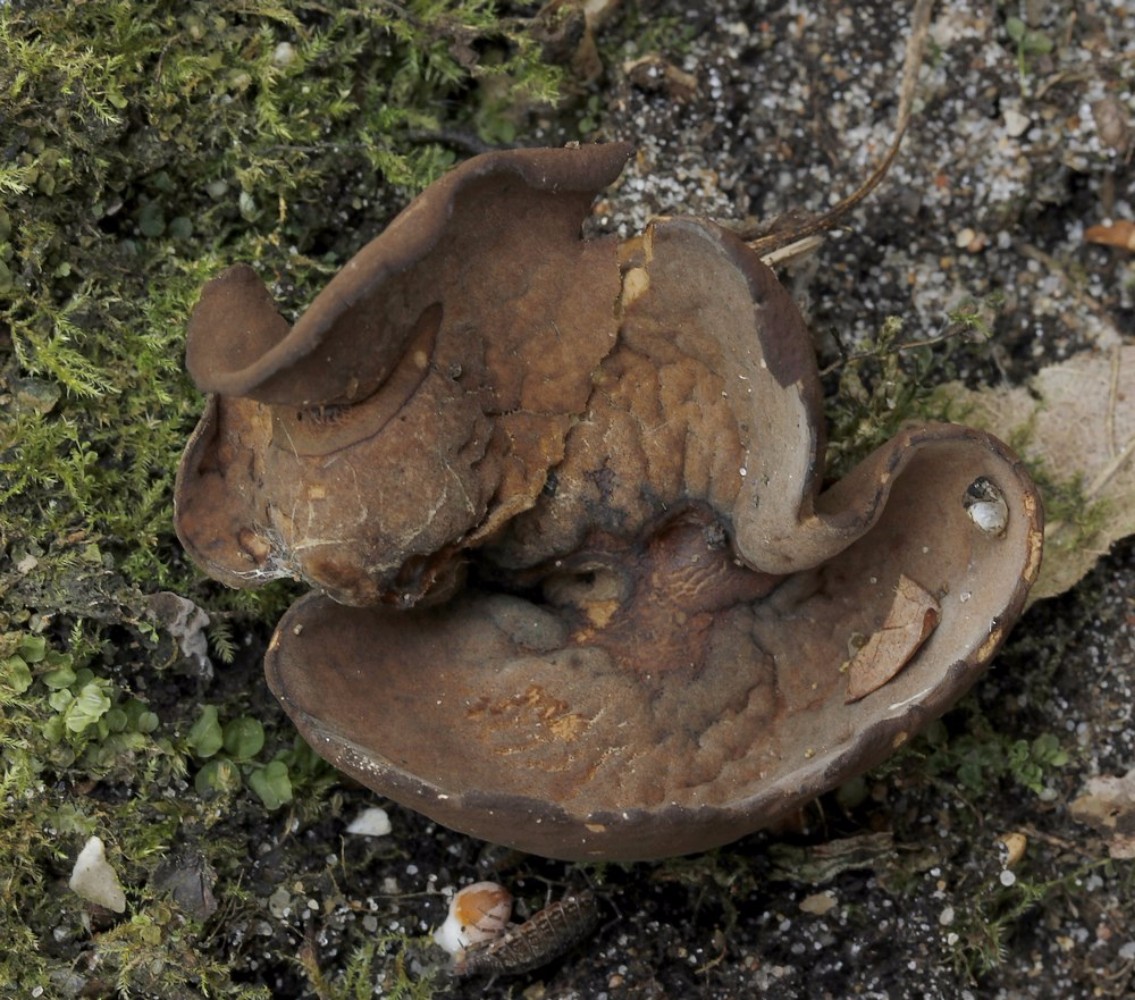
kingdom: Fungi
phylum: Ascomycota
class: Pezizomycetes
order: Pezizales
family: Otideaceae
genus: Otidea
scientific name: Otidea bufonia
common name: brun ørebæger
